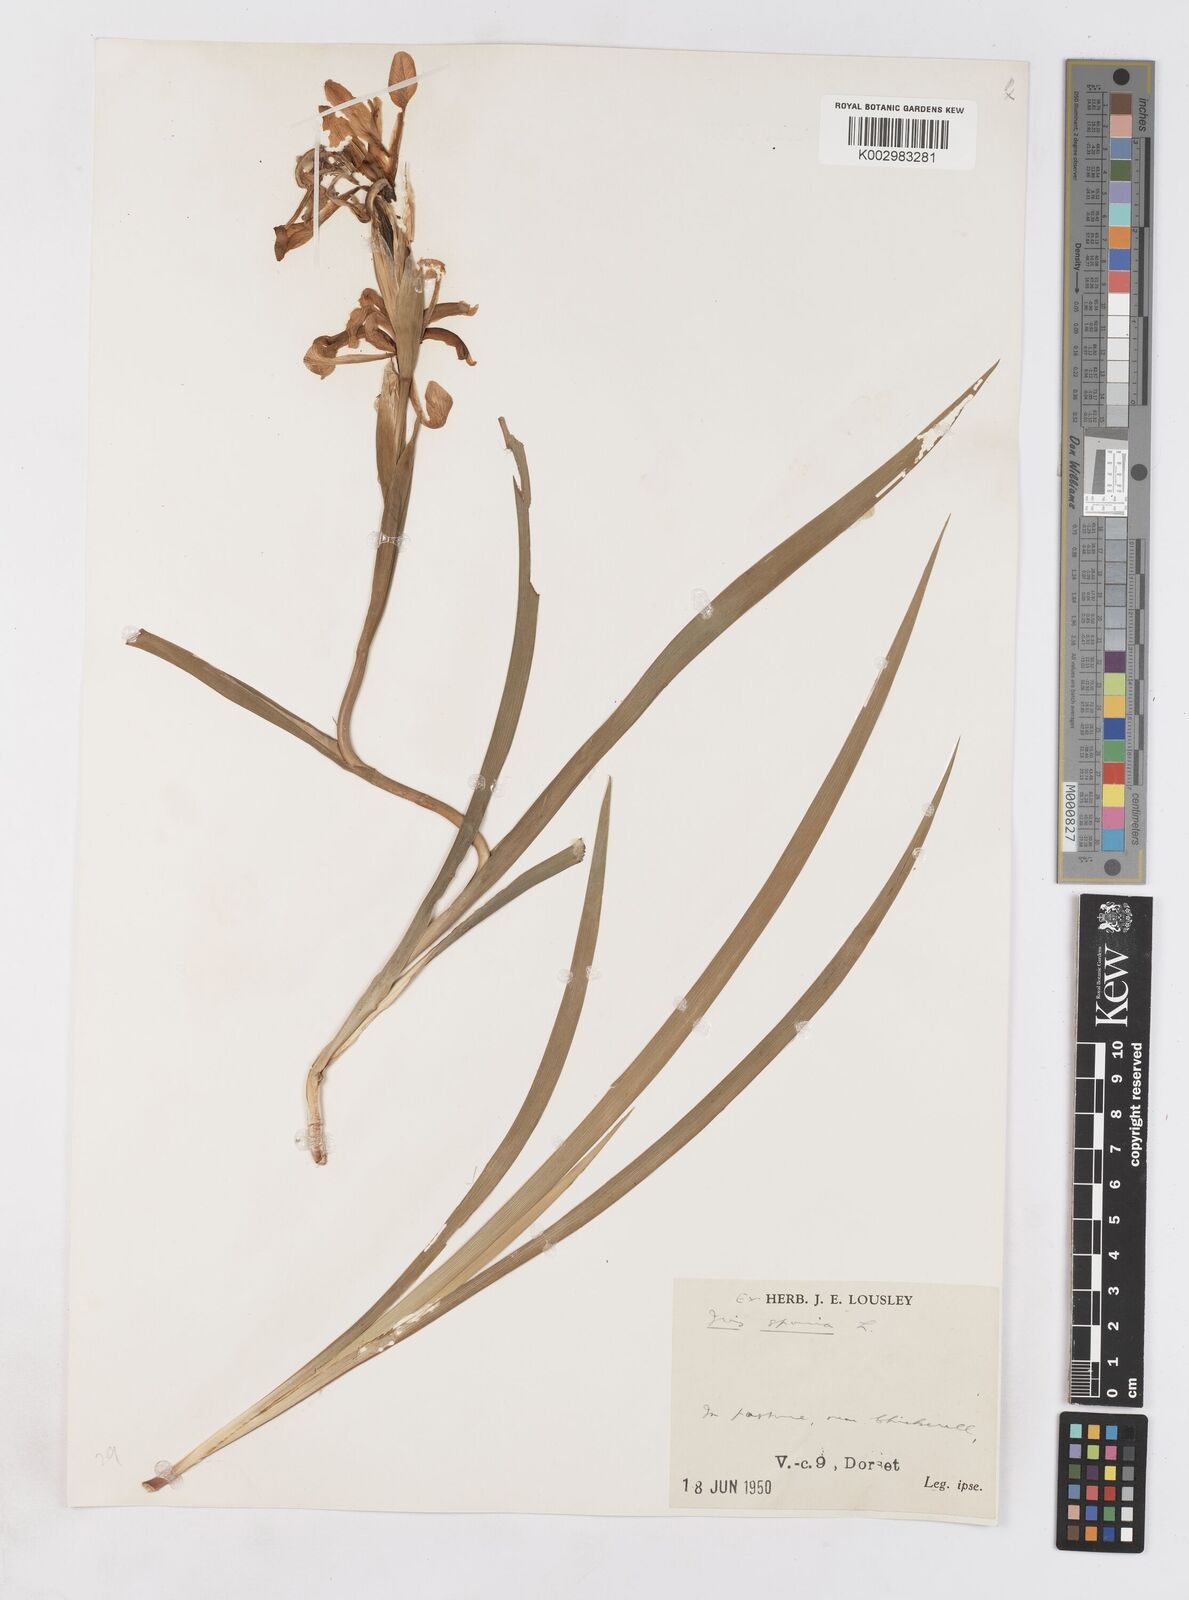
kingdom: Plantae
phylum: Tracheophyta
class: Liliopsida
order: Asparagales
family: Iridaceae
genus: Iris
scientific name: Iris spuria
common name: Blue iris
